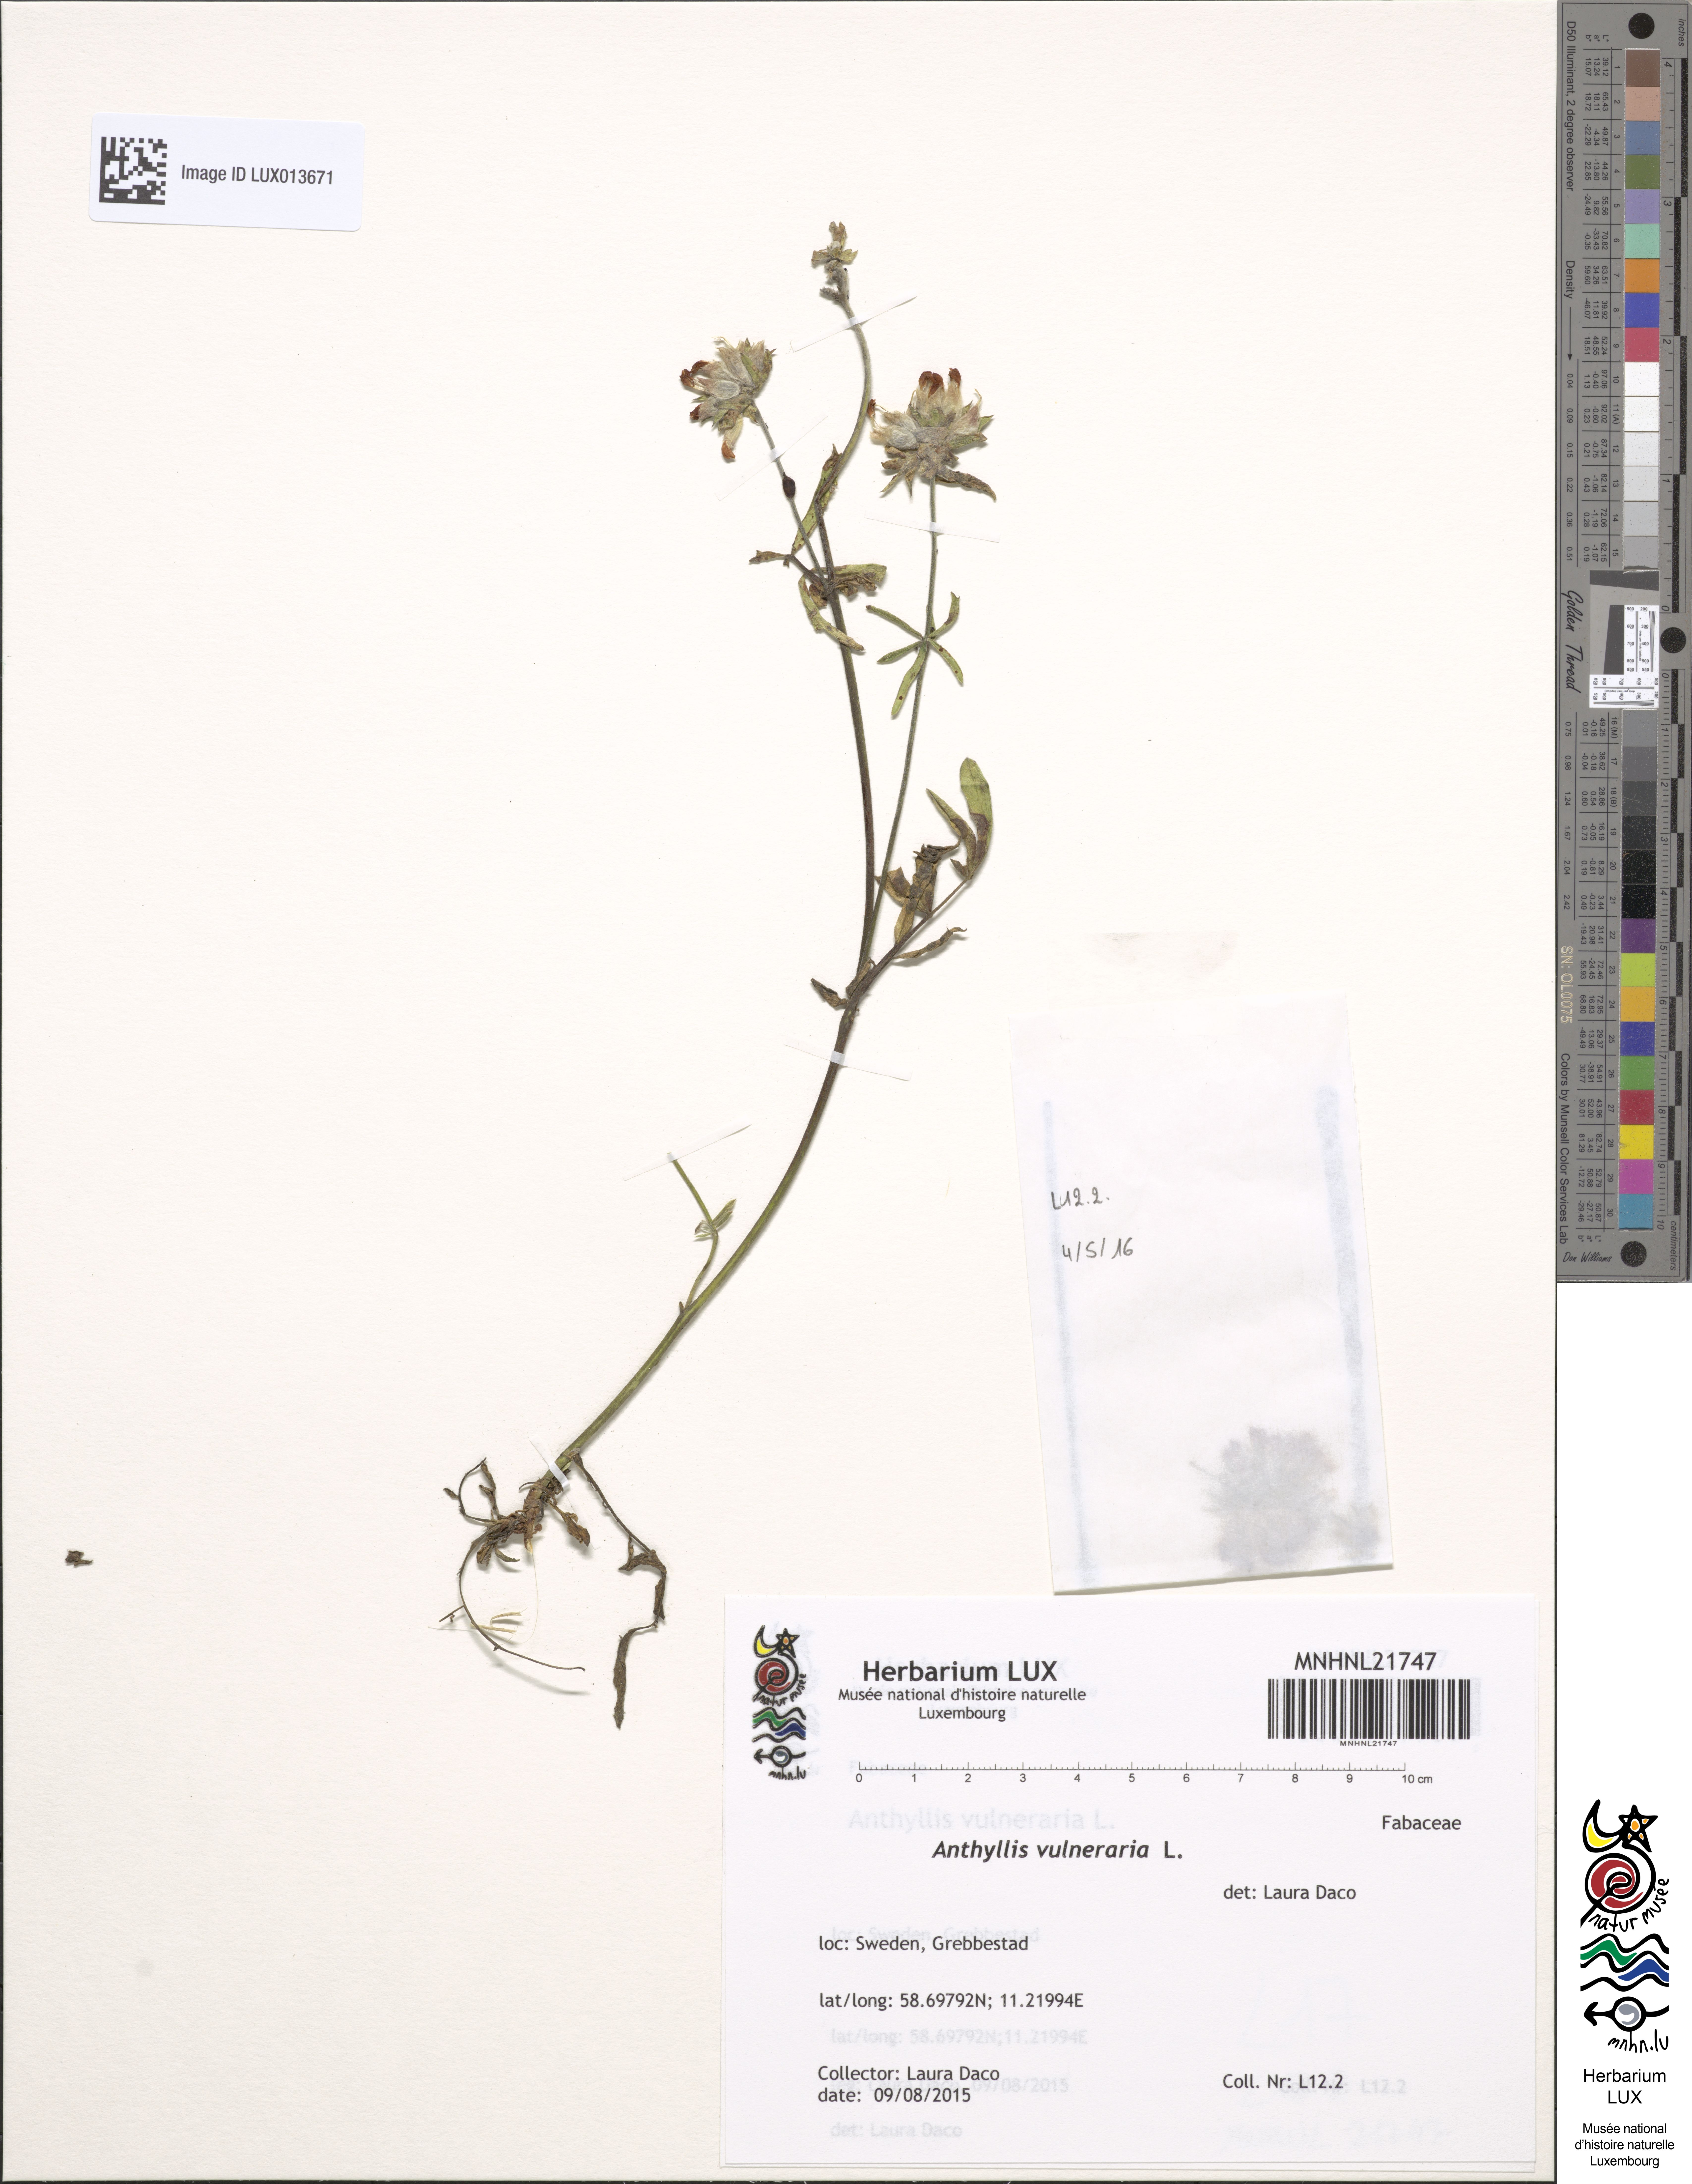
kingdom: Plantae
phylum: Tracheophyta
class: Magnoliopsida
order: Fabales
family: Fabaceae
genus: Anthyllis
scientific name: Anthyllis vulneraria
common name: Kidney vetch
